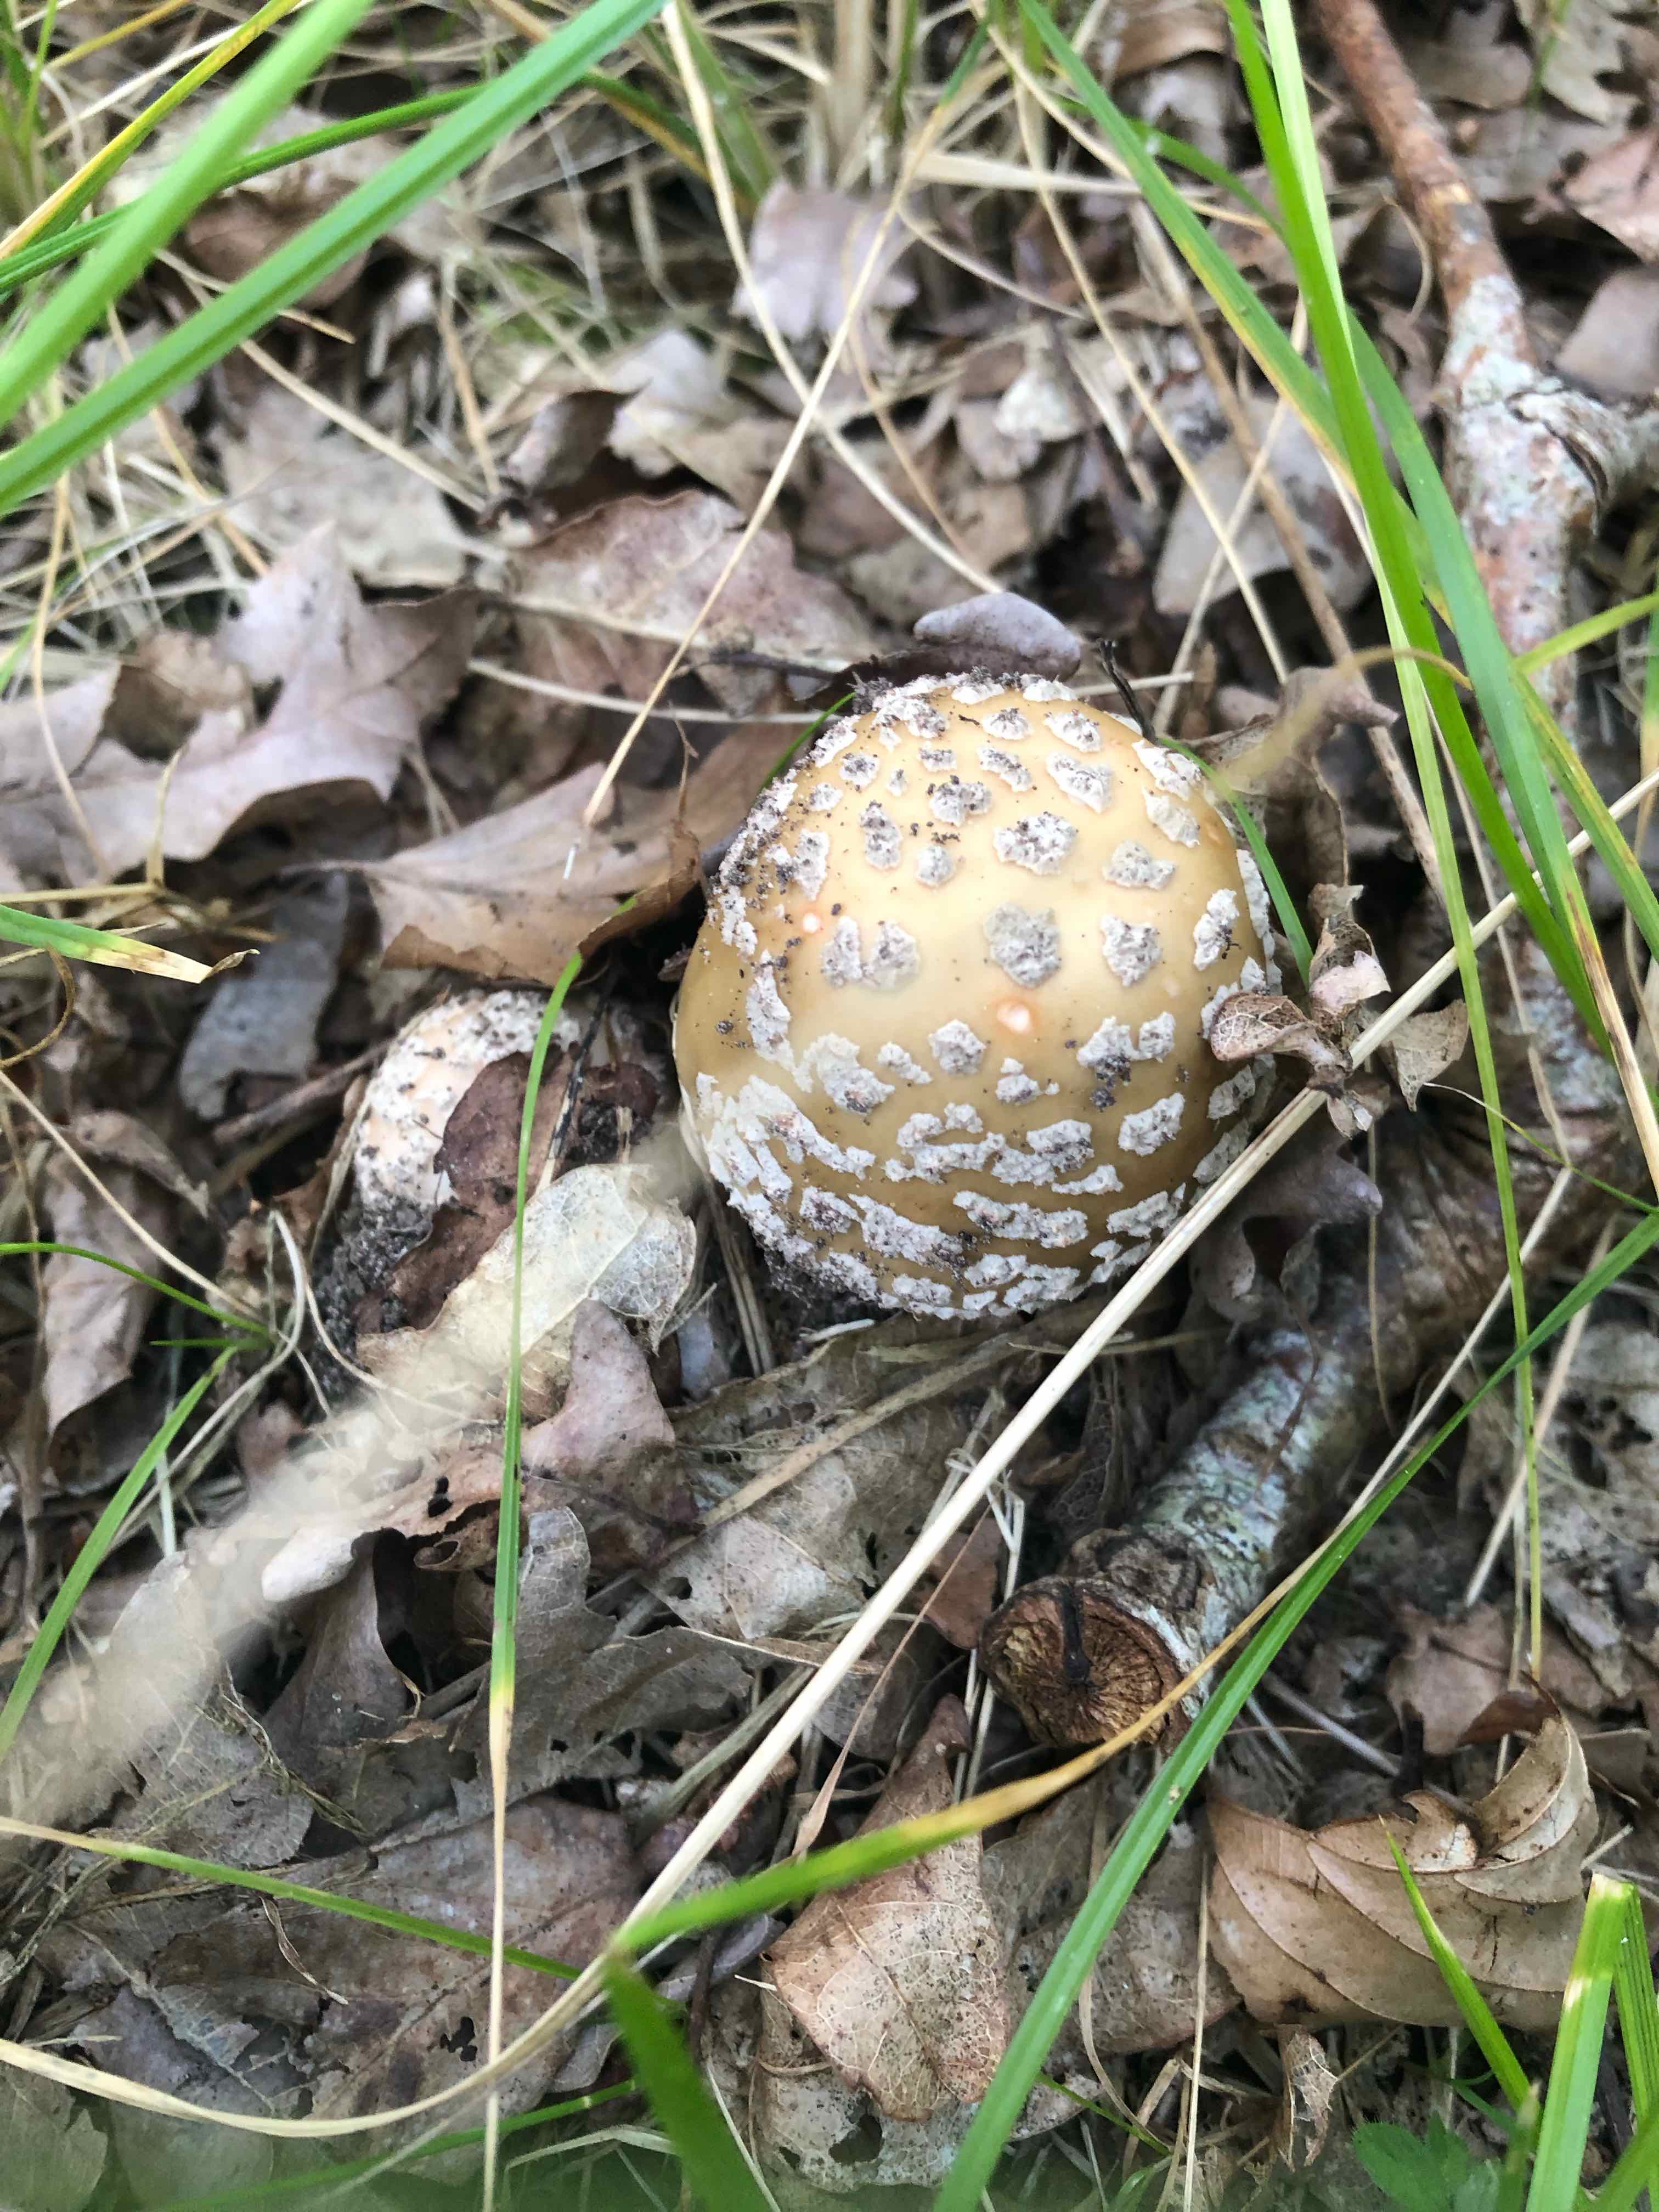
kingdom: Fungi
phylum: Basidiomycota
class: Agaricomycetes
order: Agaricales
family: Amanitaceae
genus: Amanita
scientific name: Amanita rubescens
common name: rødmende fluesvamp
